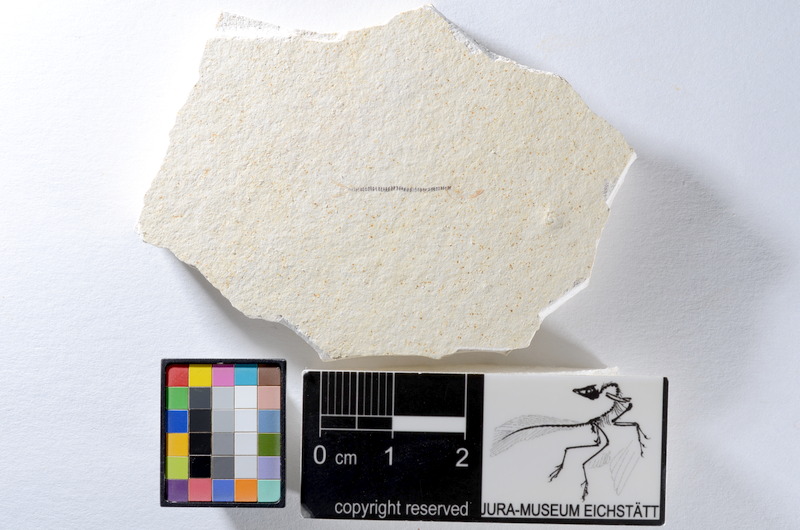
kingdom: Animalia
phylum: Chordata
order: Salmoniformes
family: Orthogonikleithridae
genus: Orthogonikleithrus
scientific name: Orthogonikleithrus hoelli
